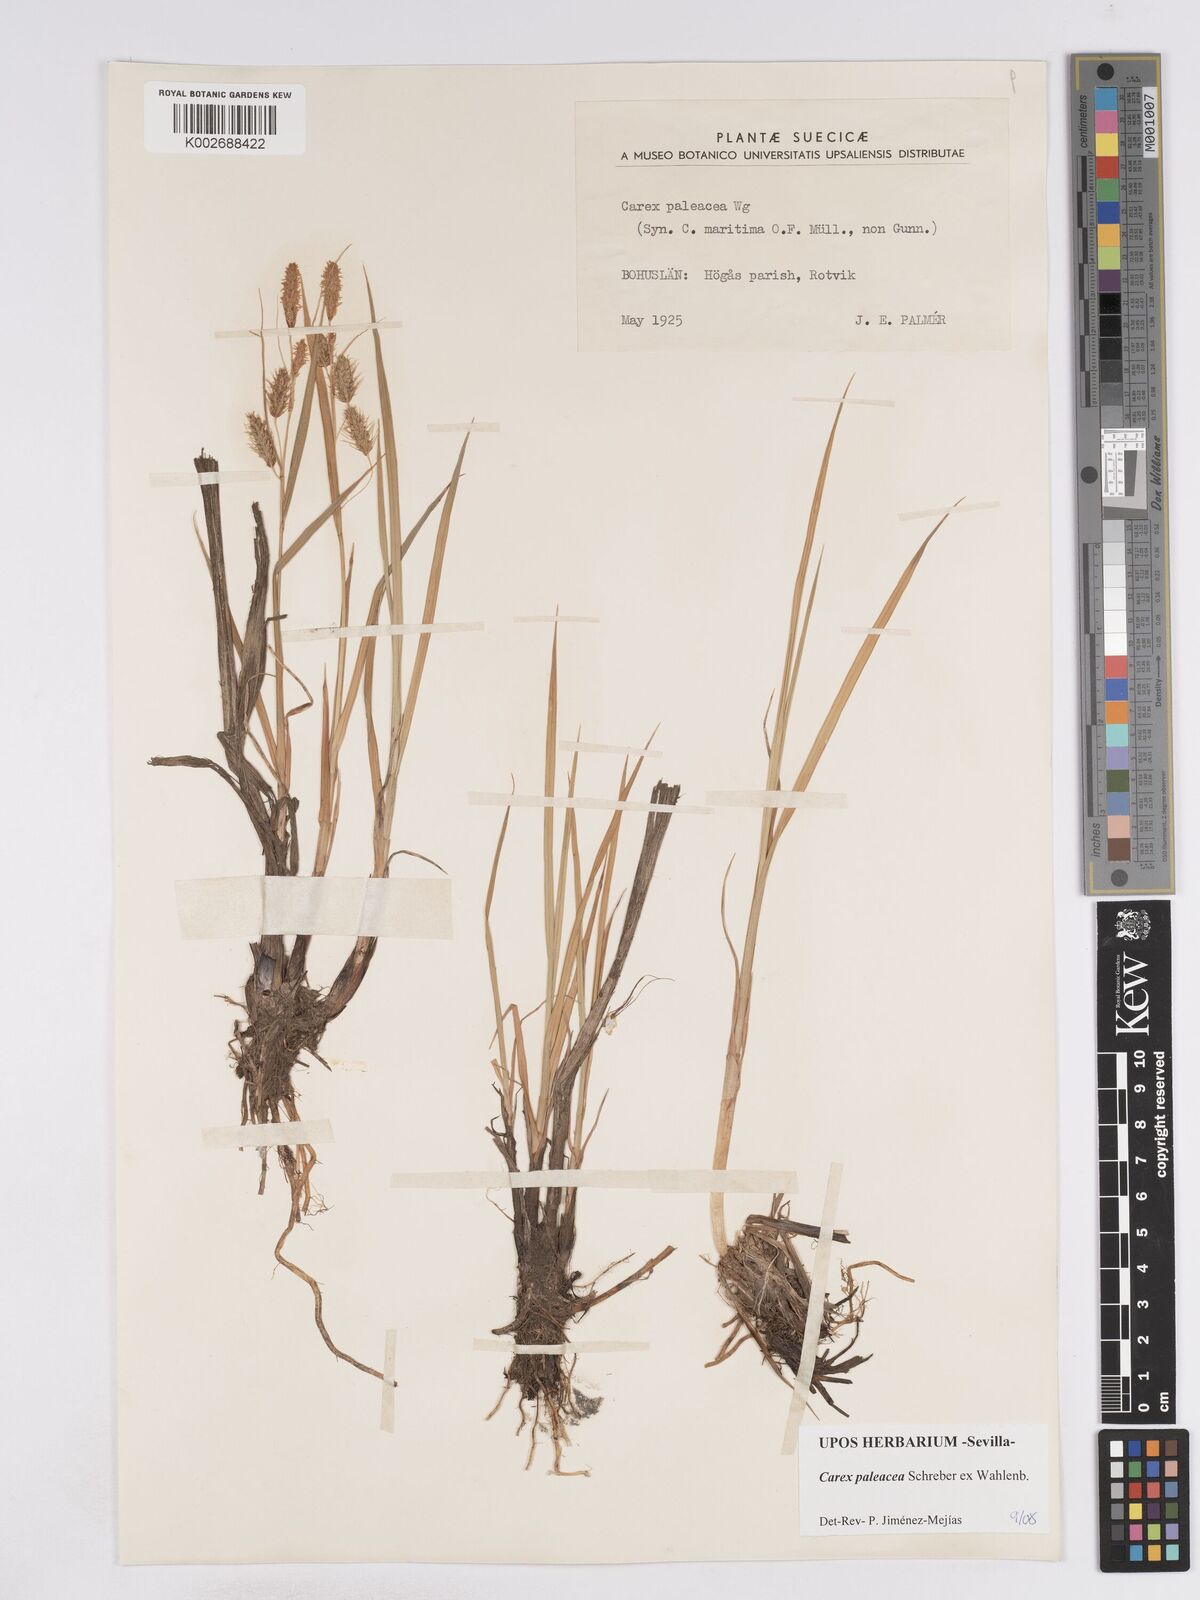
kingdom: Plantae
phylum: Tracheophyta
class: Liliopsida
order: Poales
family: Cyperaceae
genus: Carex
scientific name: Carex paleacea
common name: Chaffy sedge
